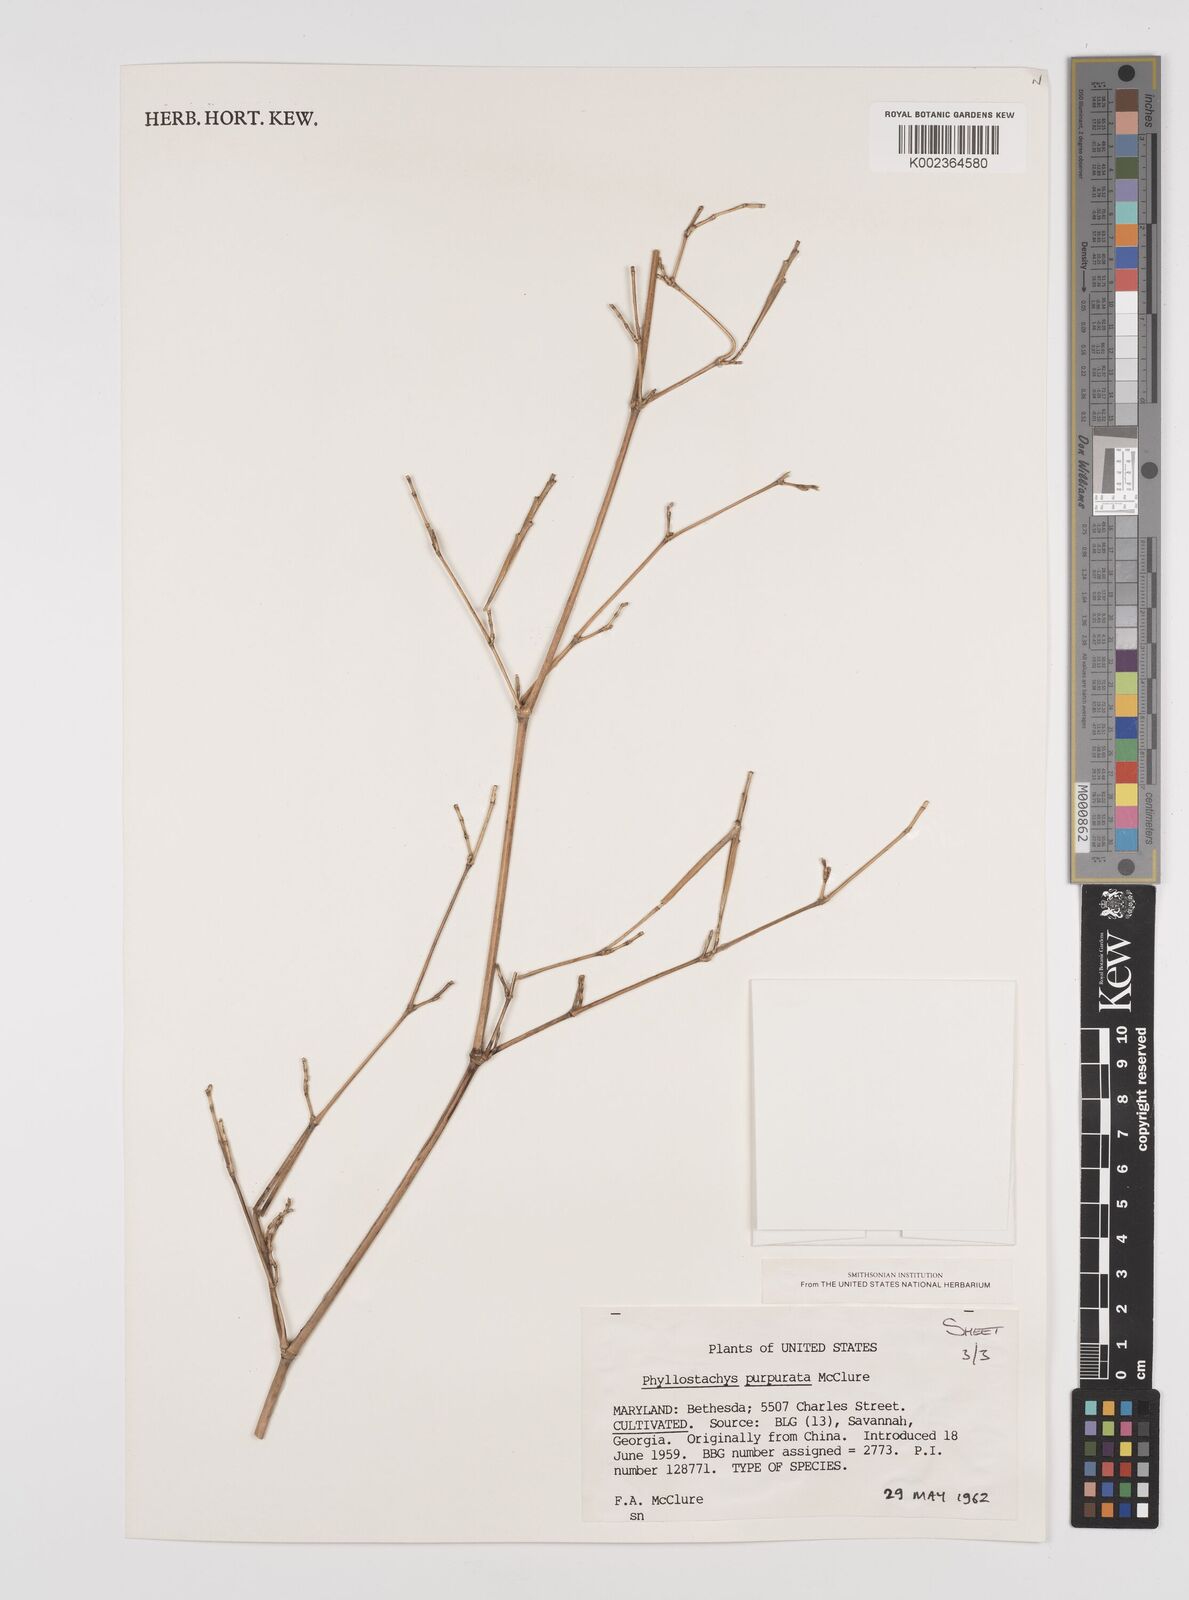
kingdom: Plantae
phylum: Tracheophyta
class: Liliopsida
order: Poales
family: Poaceae
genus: Phyllostachys
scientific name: Phyllostachys heteroclada
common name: Fishscale bamboo
